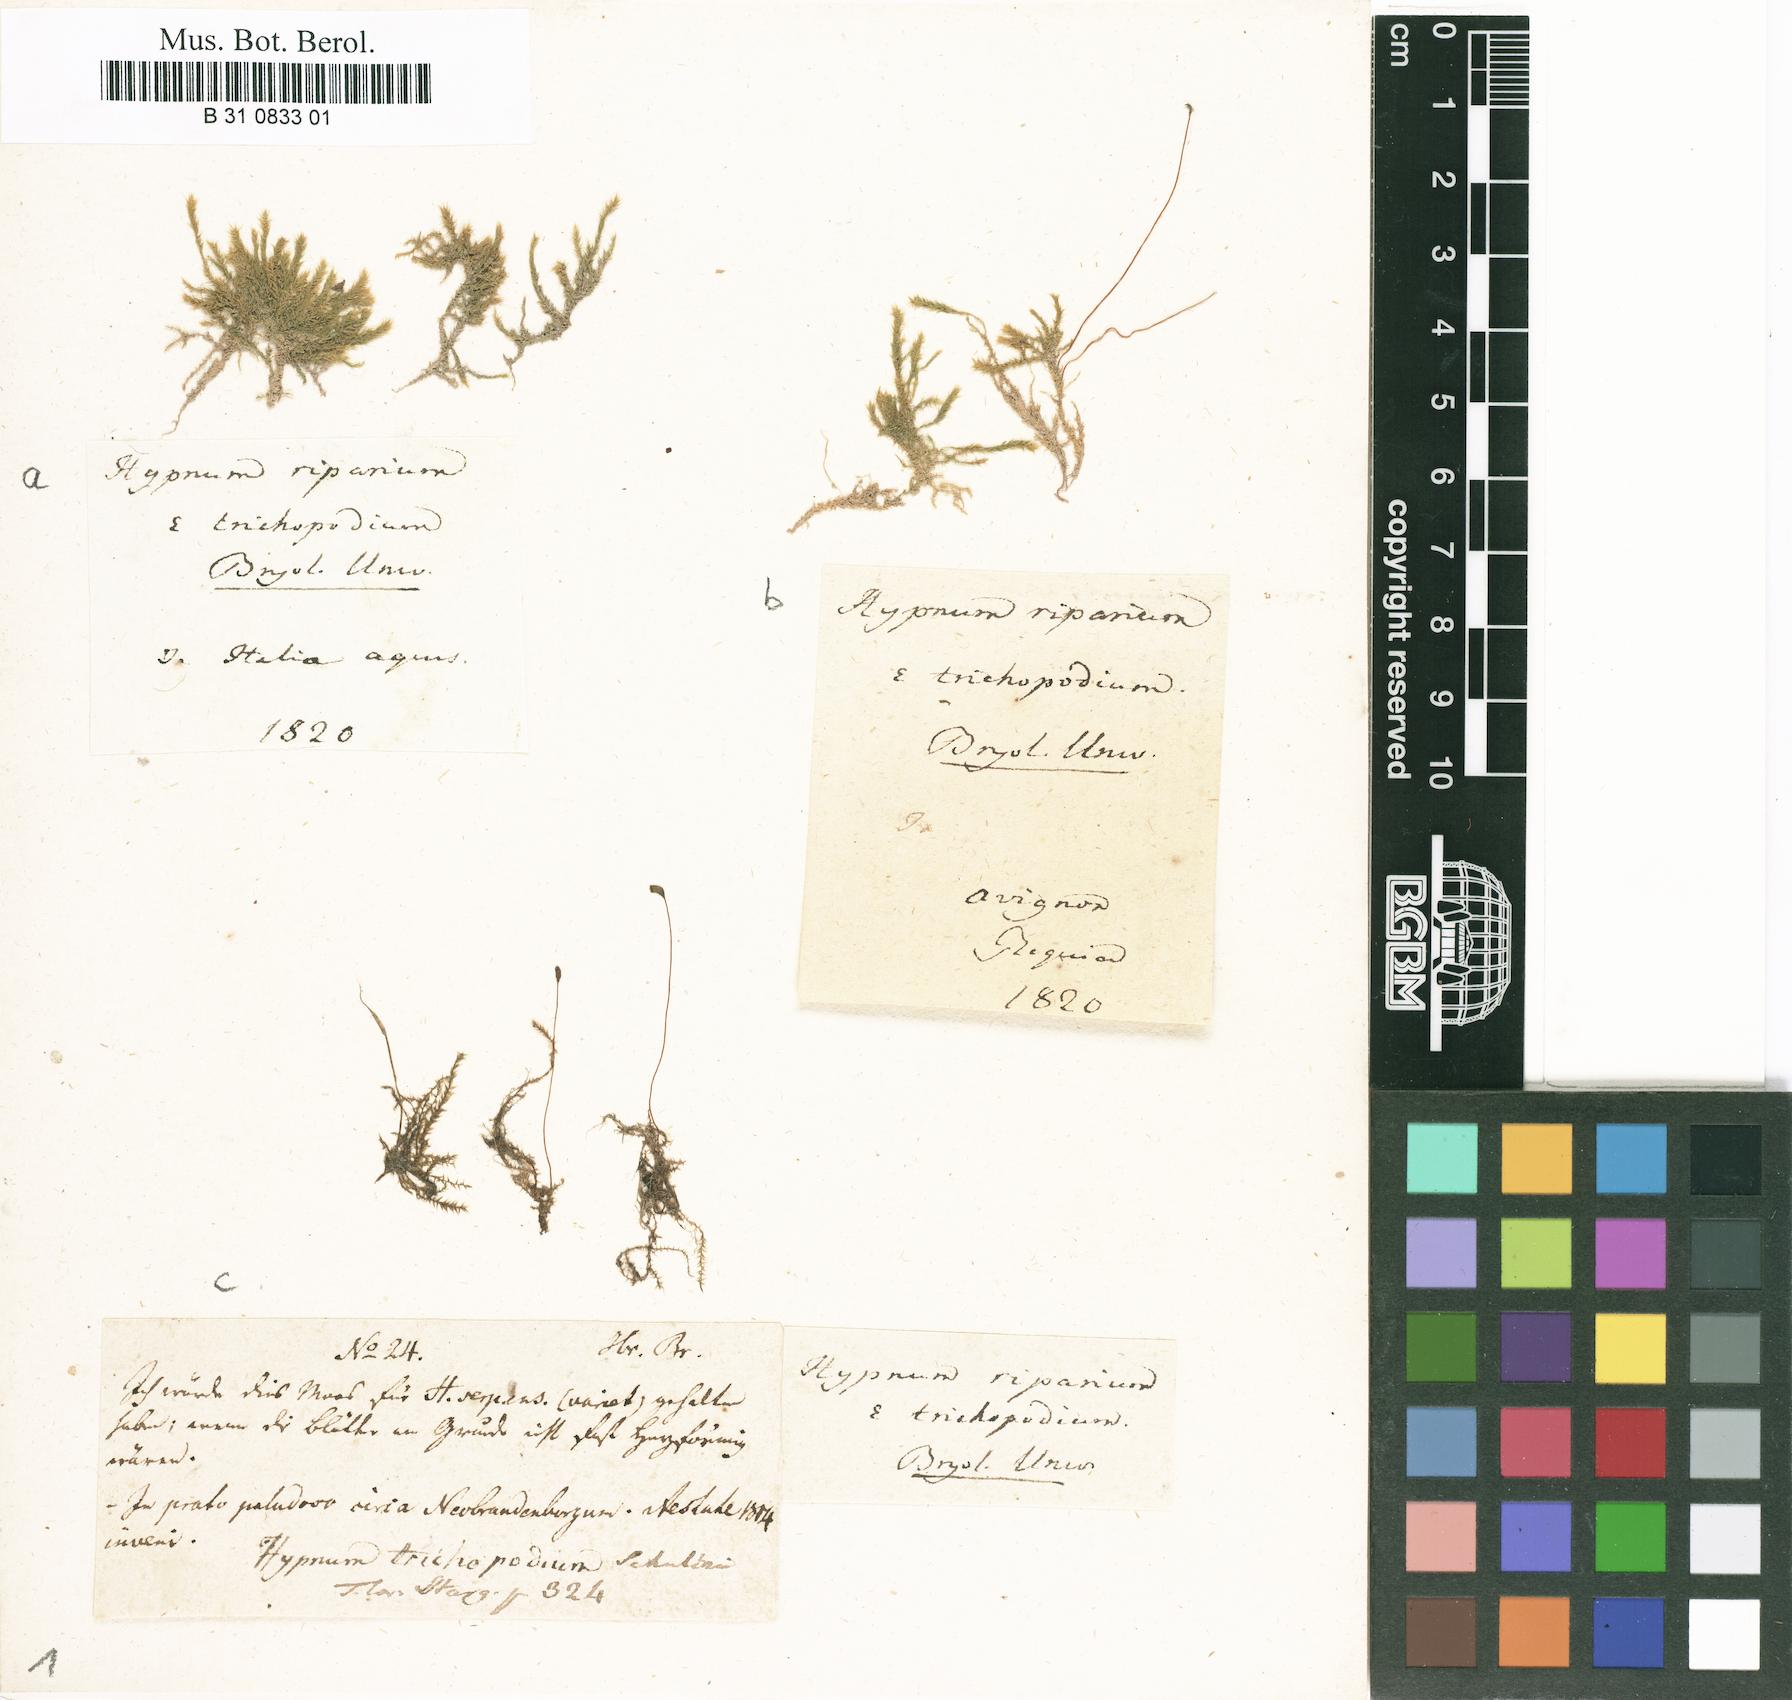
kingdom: Plantae
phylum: Bryophyta
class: Bryopsida
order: Hypnales
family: Amblystegiaceae
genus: Leptodictyum
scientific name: Leptodictyum riparium
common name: Riparian feather moss
